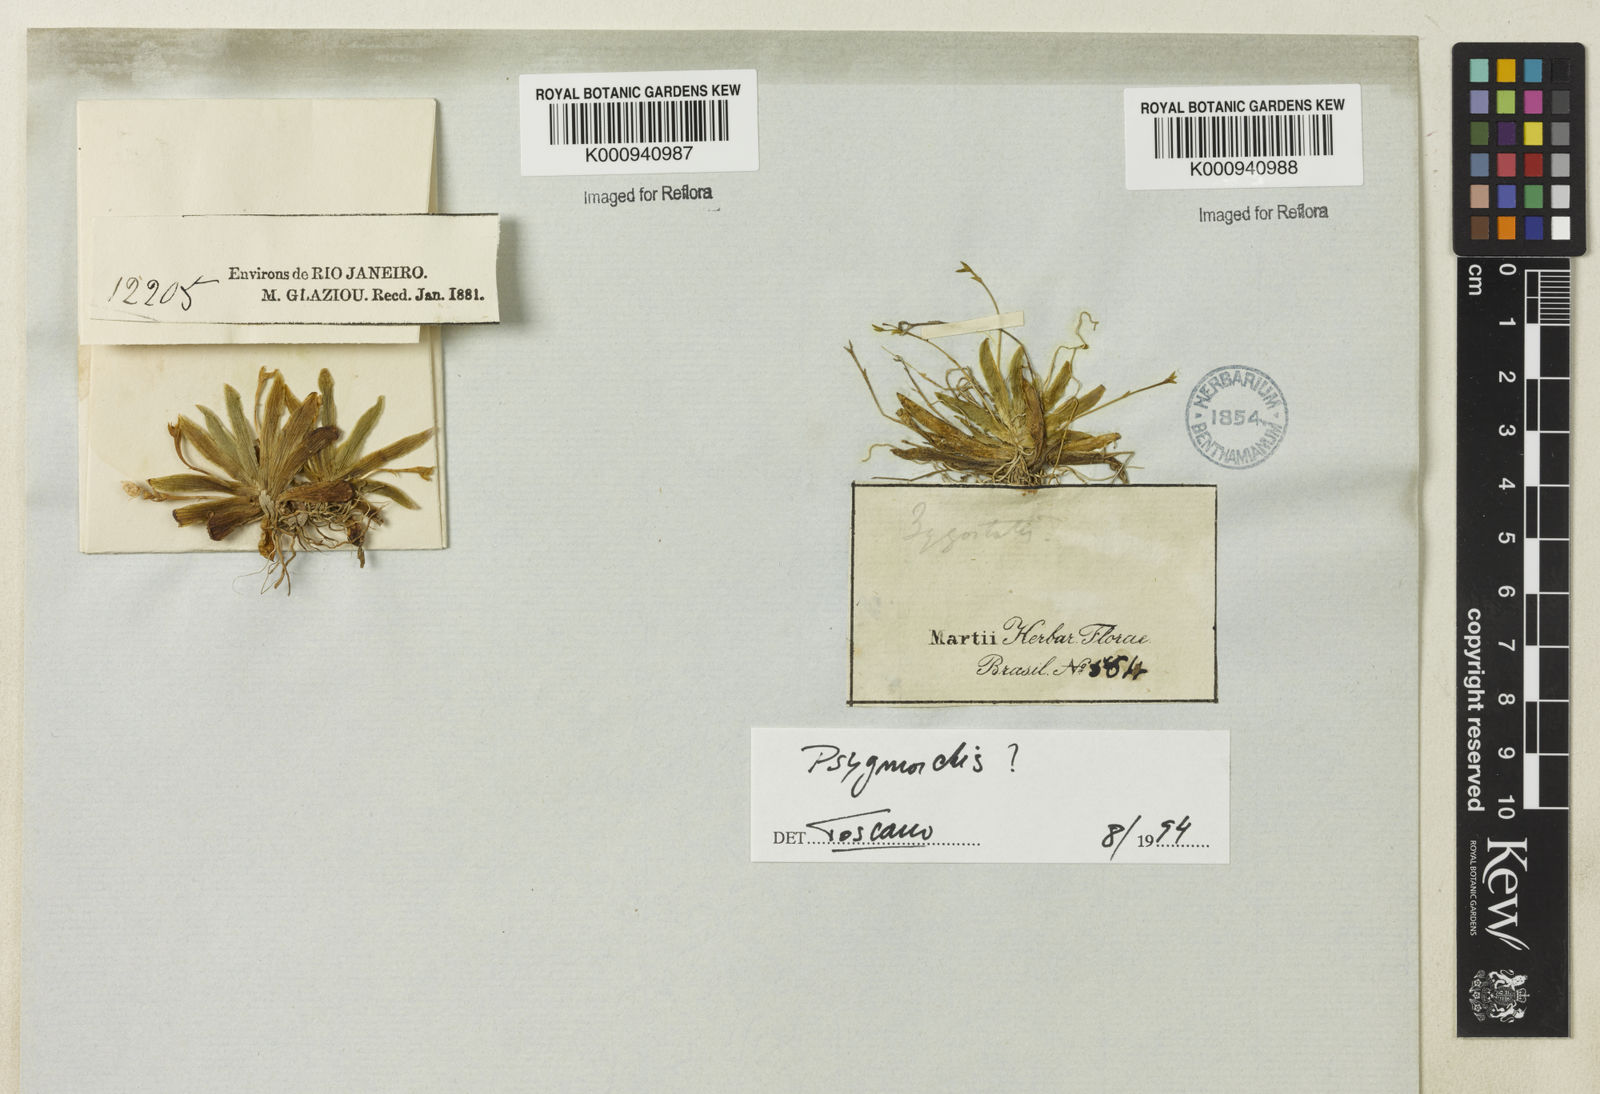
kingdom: Plantae
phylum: Tracheophyta
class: Liliopsida
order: Asparagales
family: Orchidaceae
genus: Erycina
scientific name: Erycina
